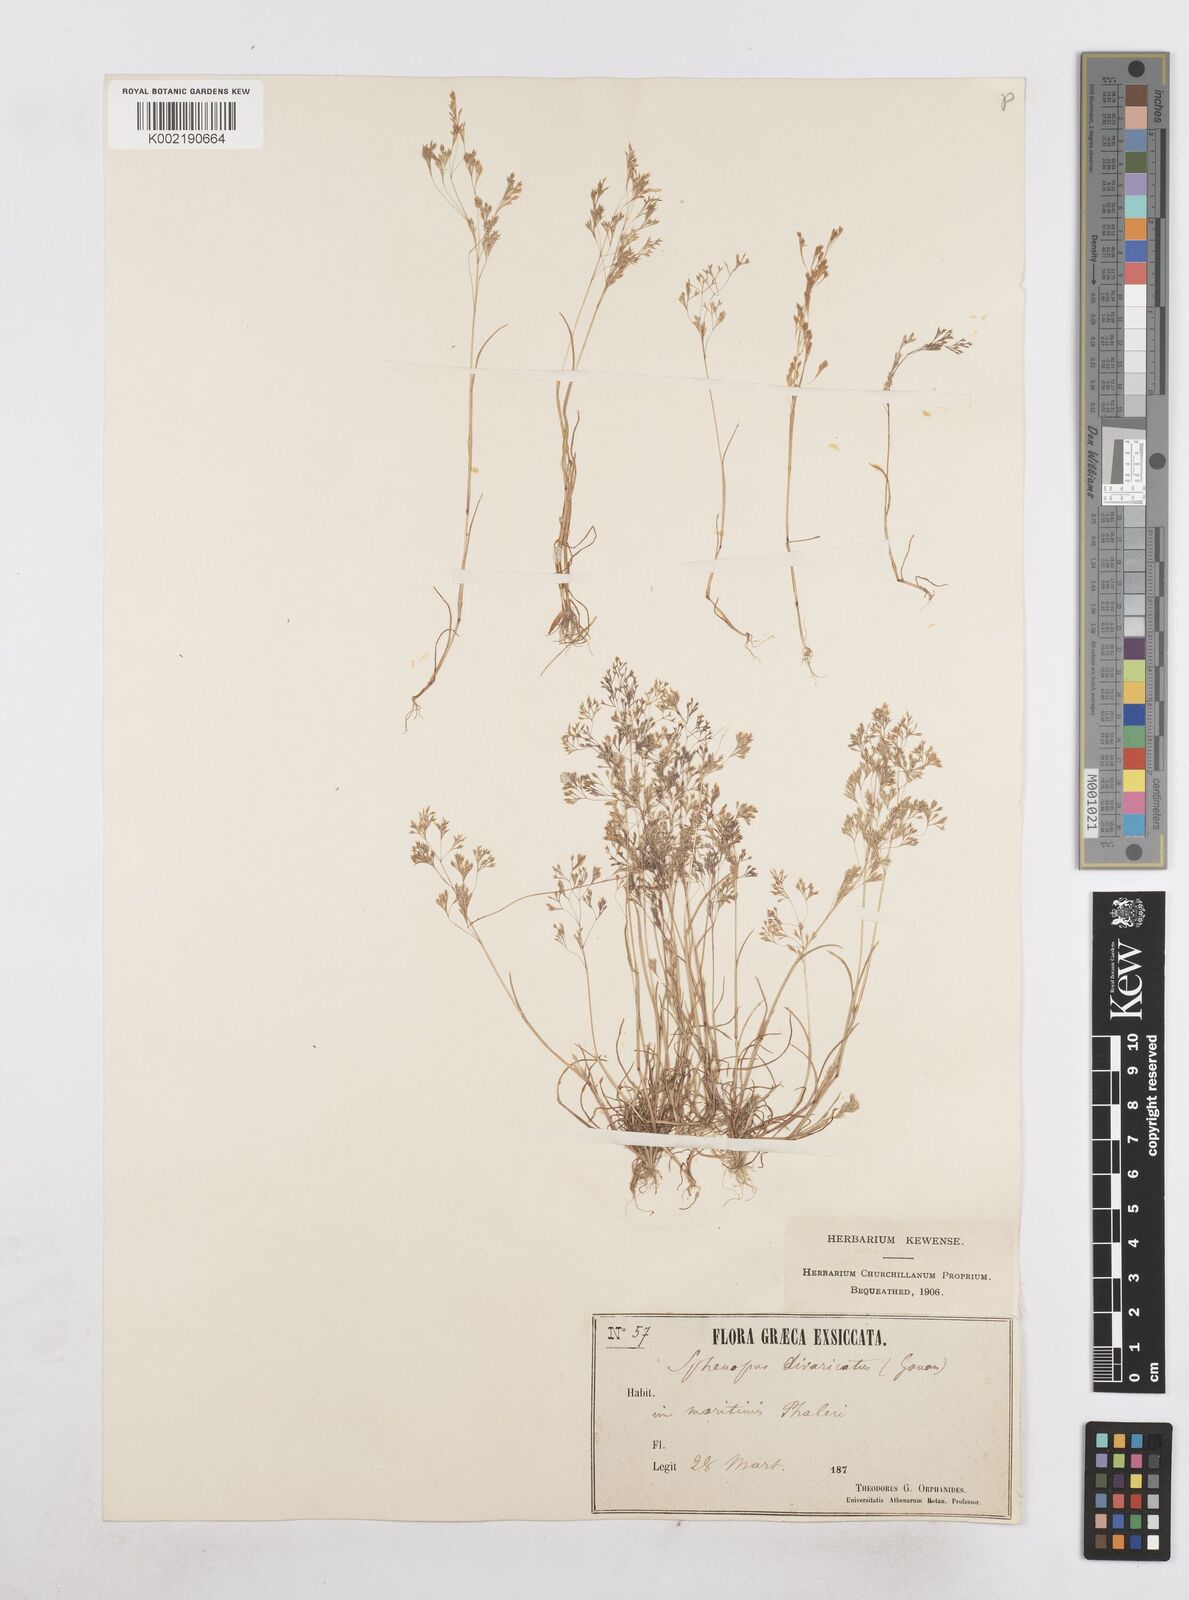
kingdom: Plantae
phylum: Tracheophyta
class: Liliopsida
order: Poales
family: Poaceae
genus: Sphenopus
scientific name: Sphenopus divaricatus
